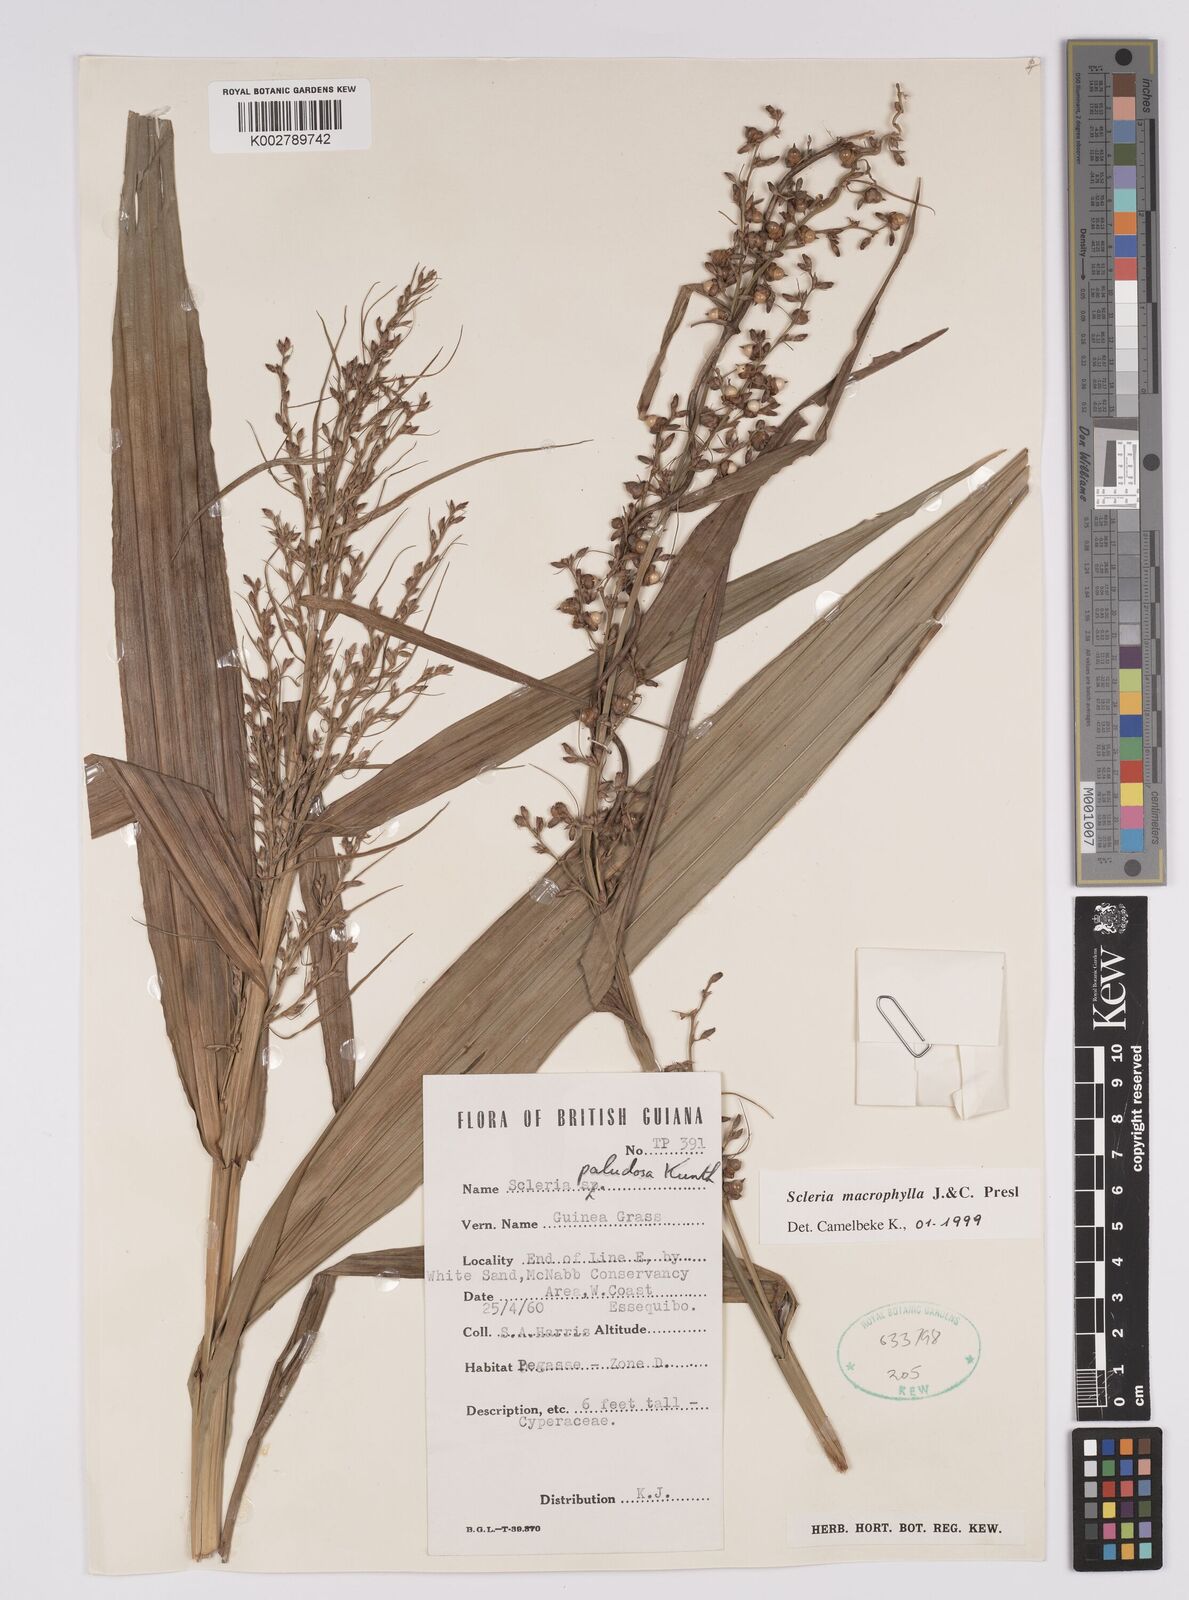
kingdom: Plantae
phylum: Tracheophyta
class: Liliopsida
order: Poales
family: Cyperaceae
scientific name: Cyperaceae
